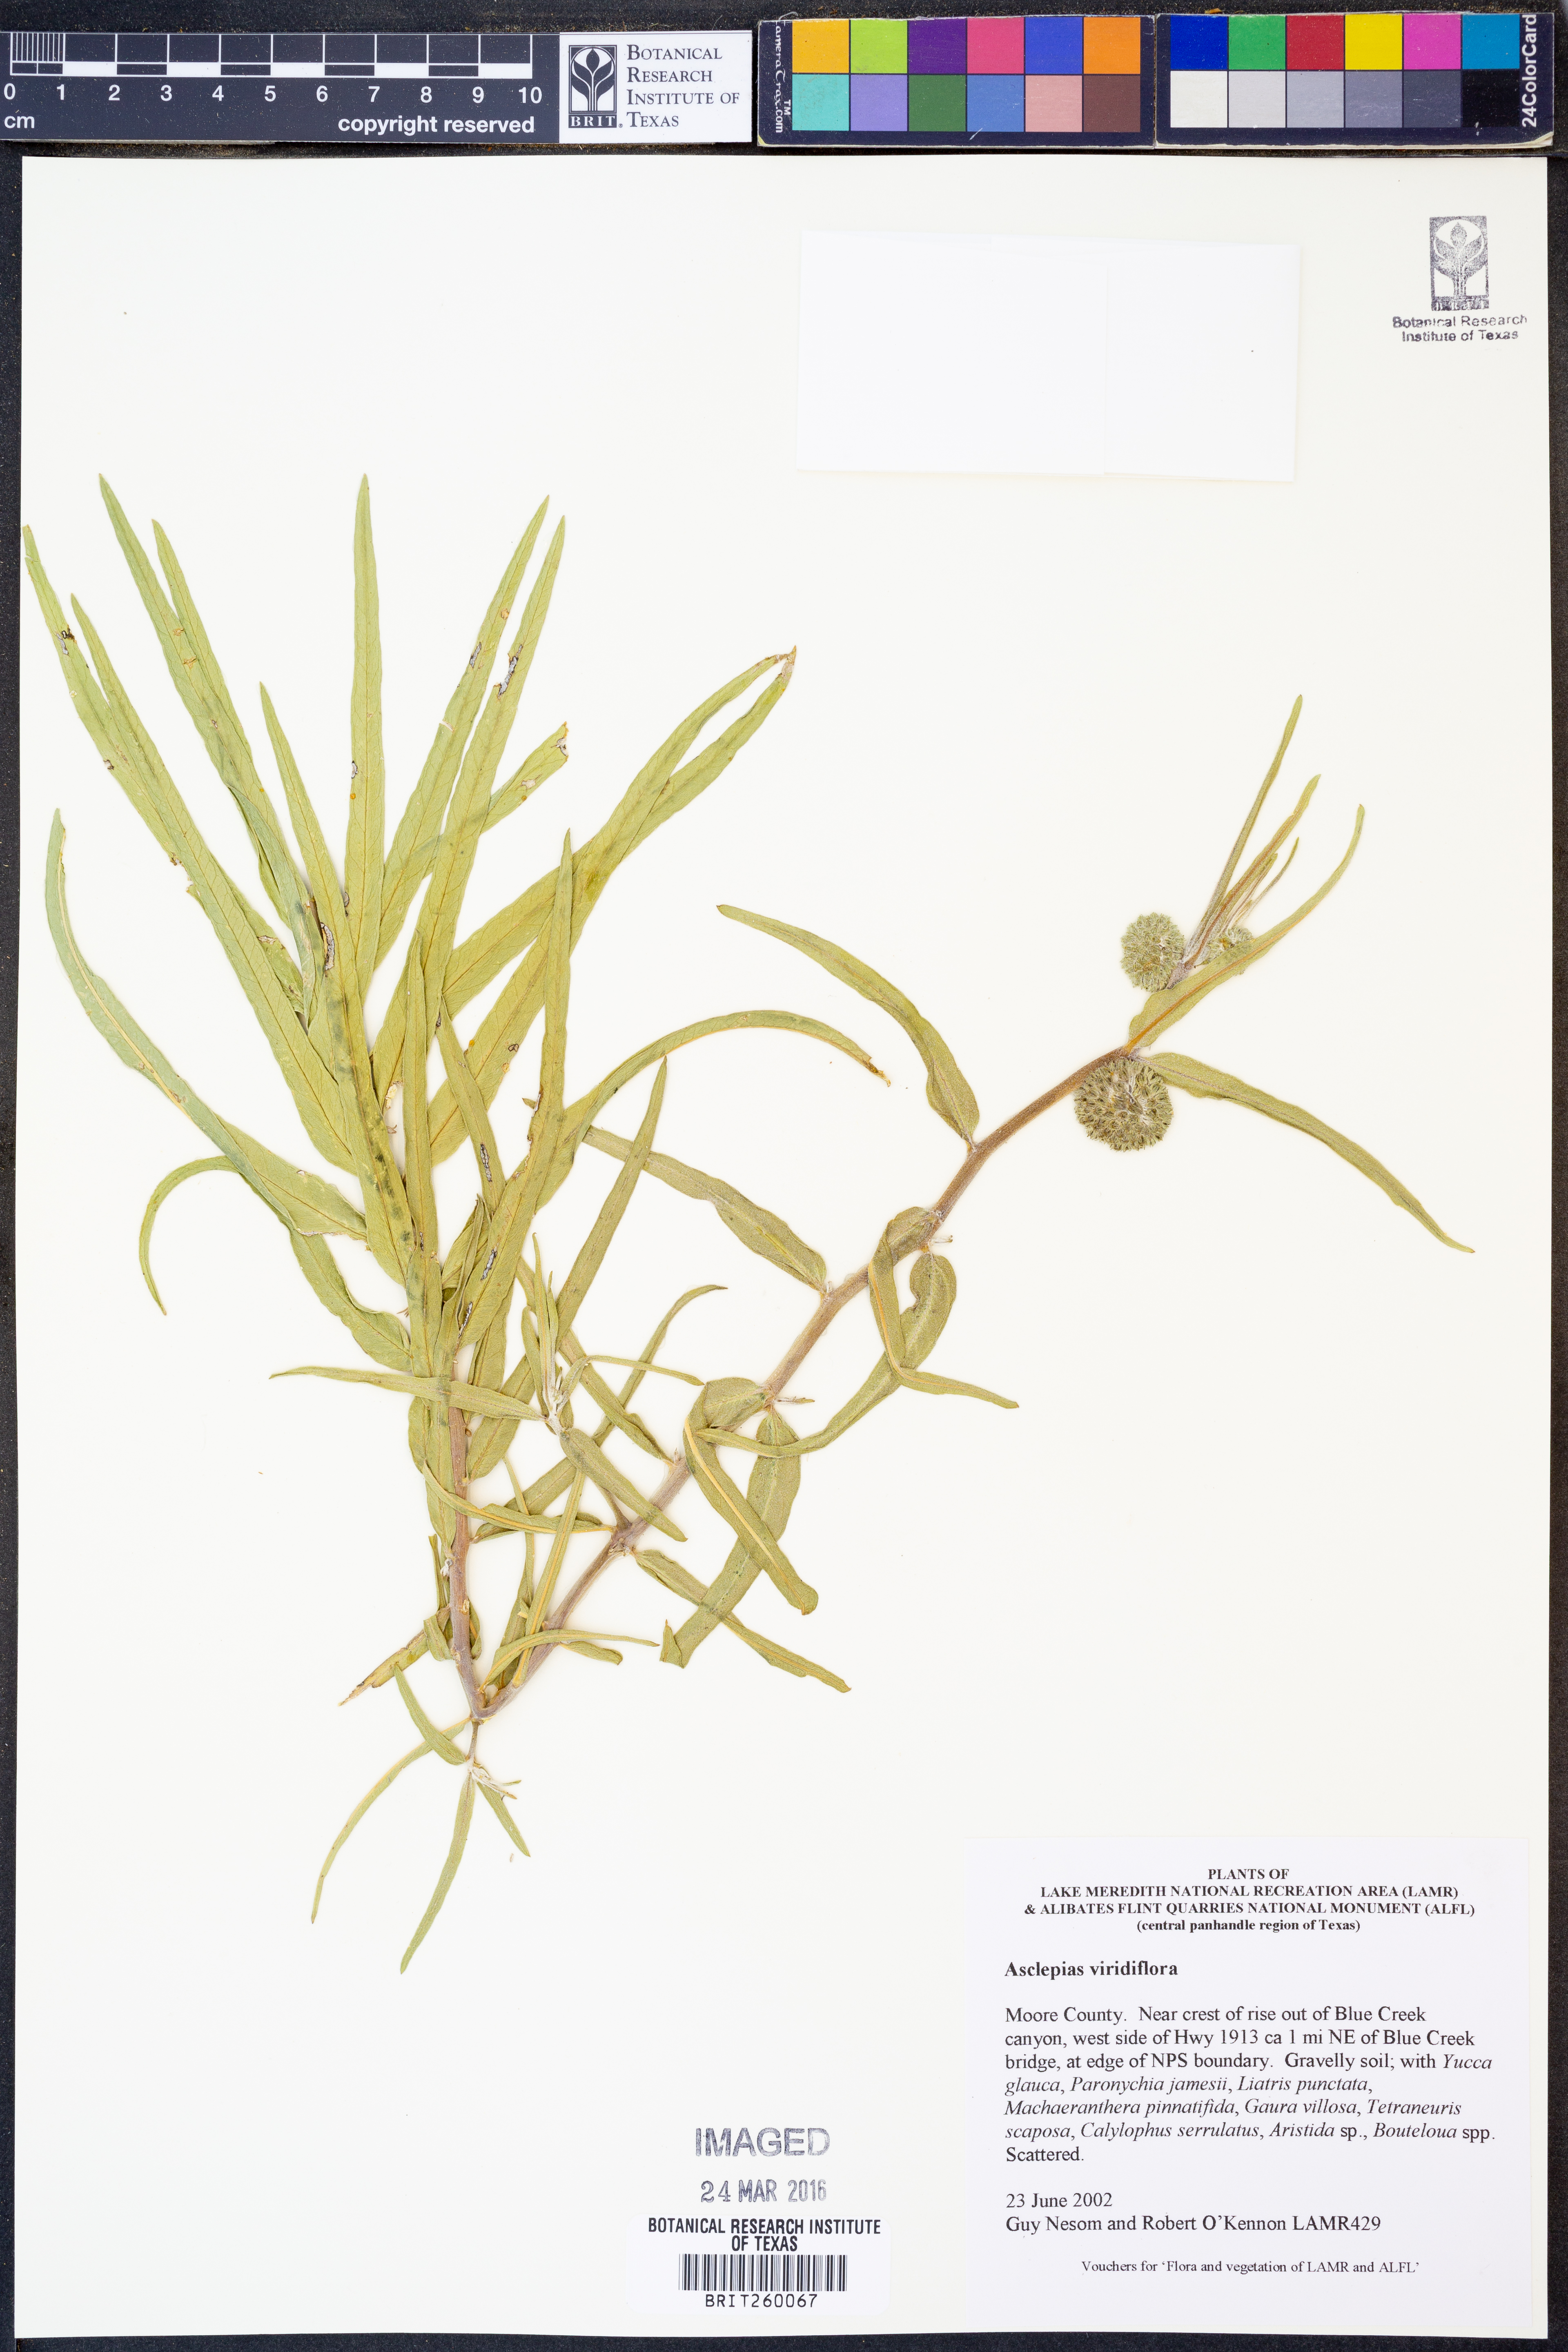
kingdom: Plantae
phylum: Tracheophyta
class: Magnoliopsida
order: Gentianales
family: Apocynaceae
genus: Asclepias
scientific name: Asclepias viridiflora
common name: Green comet milkweed
